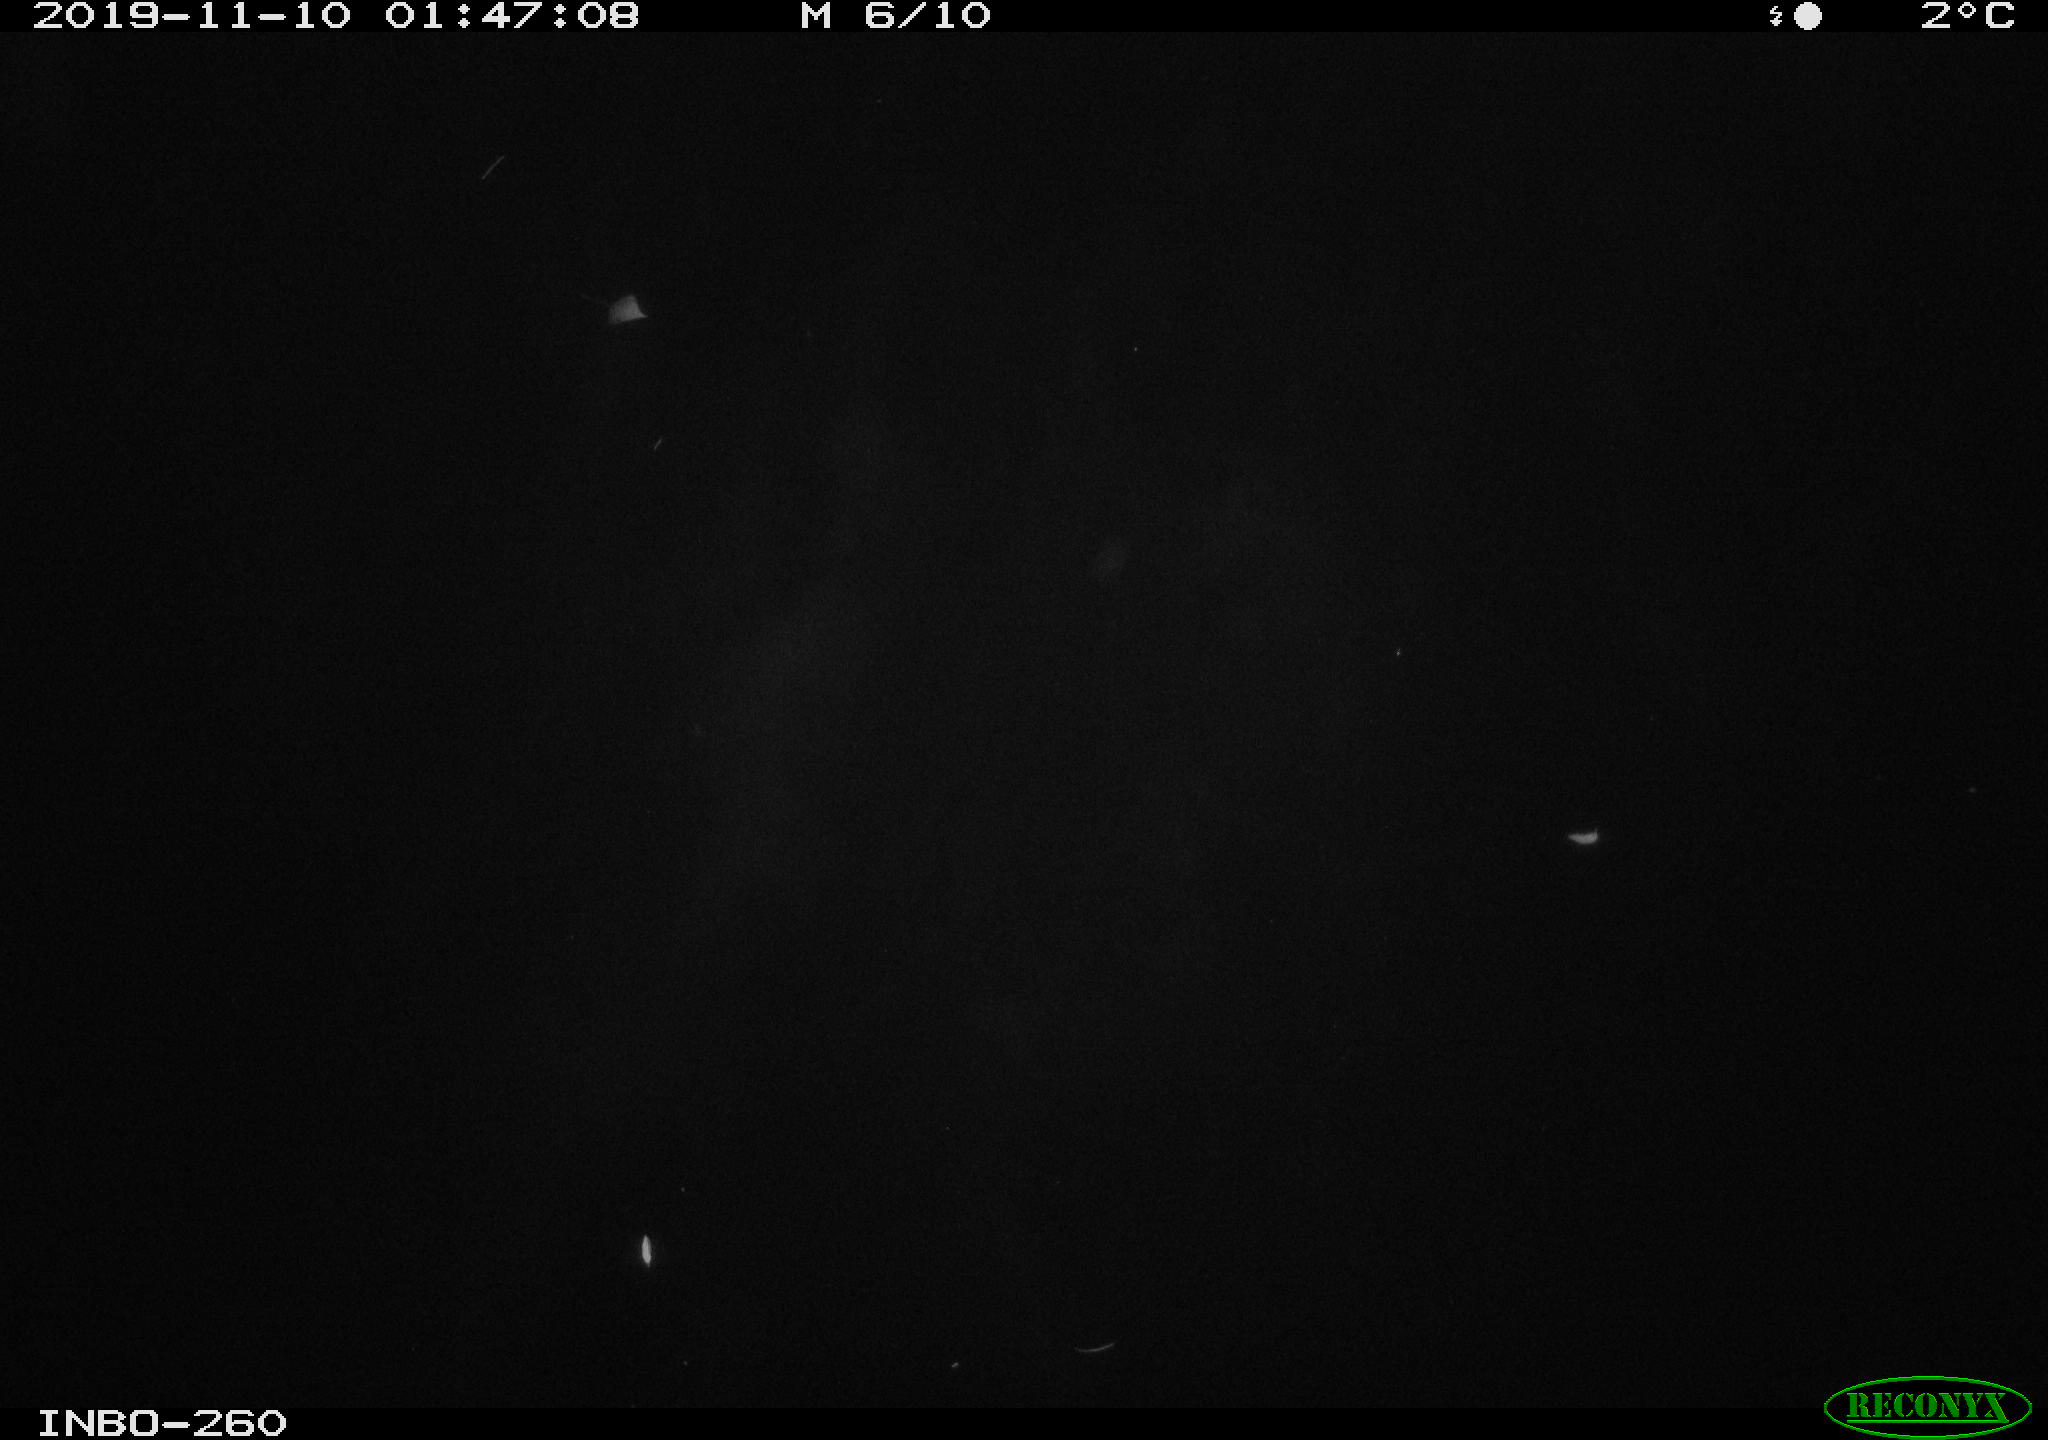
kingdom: Animalia
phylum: Chordata
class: Aves
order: Anseriformes
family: Anatidae
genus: Anas
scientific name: Anas platyrhynchos
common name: Mallard
